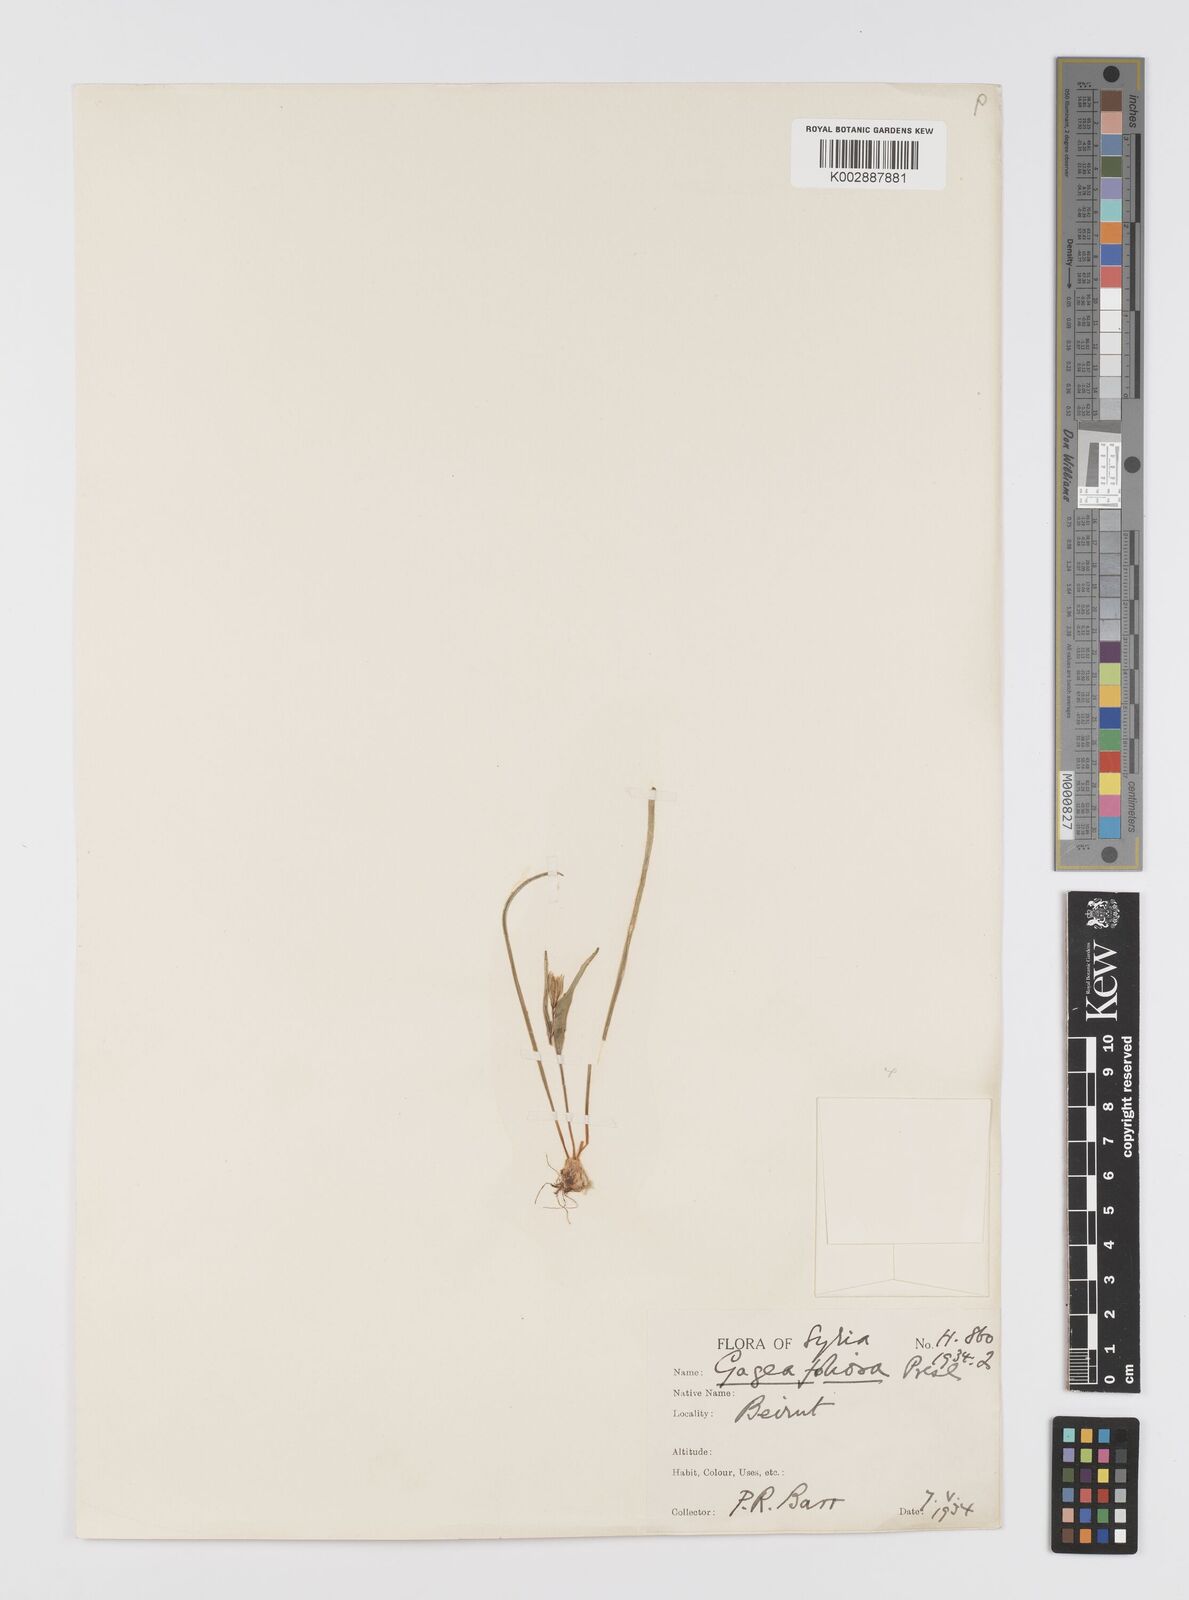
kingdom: Plantae
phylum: Tracheophyta
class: Liliopsida
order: Liliales
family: Liliaceae
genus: Gagea
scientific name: Gagea micrantha
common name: Small-flowered gagea
